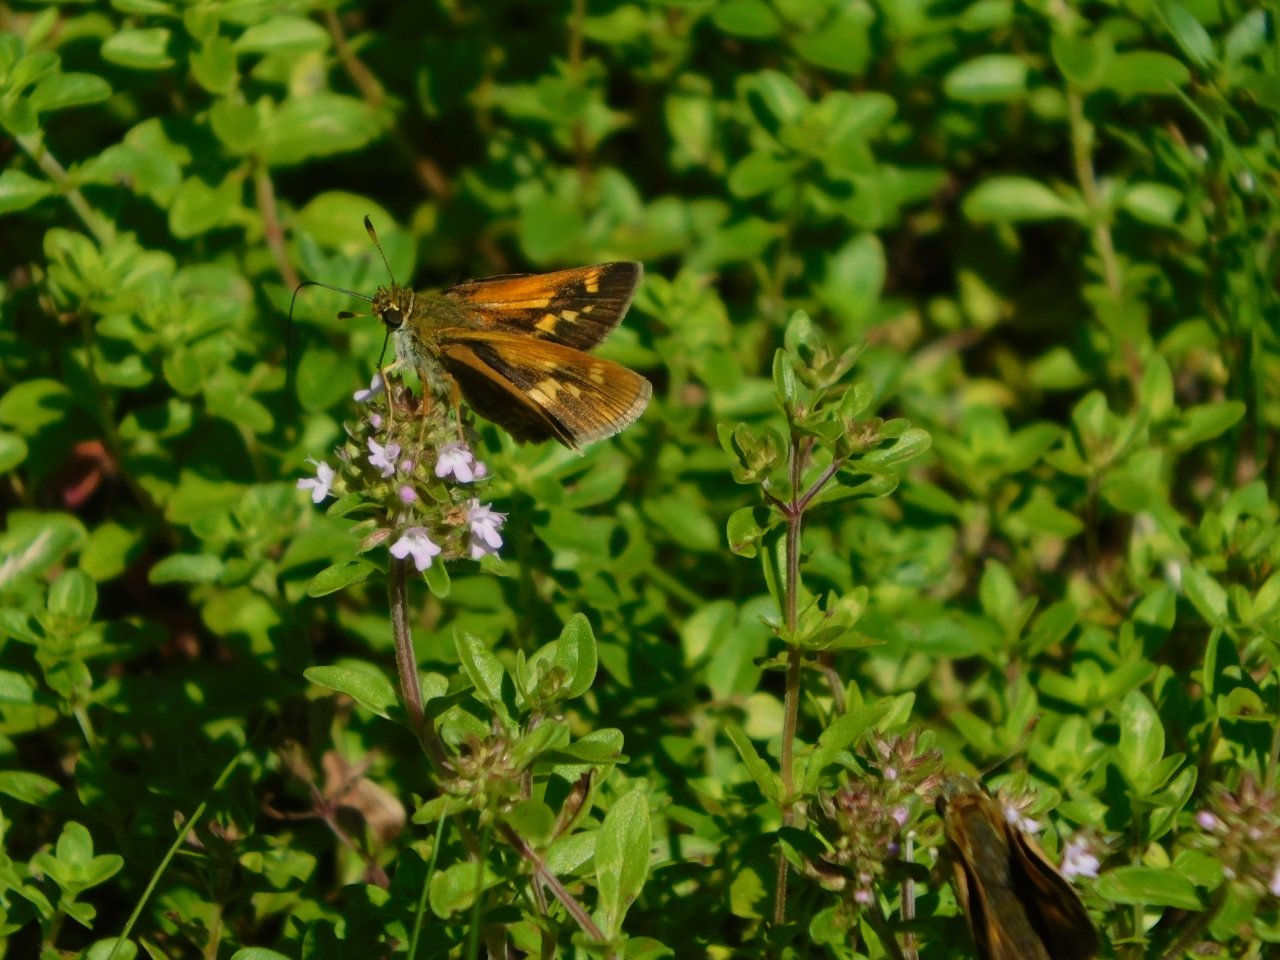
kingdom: Animalia
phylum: Arthropoda
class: Insecta
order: Lepidoptera
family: Hesperiidae
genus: Polites
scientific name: Polites
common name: Long Dash Skipper
